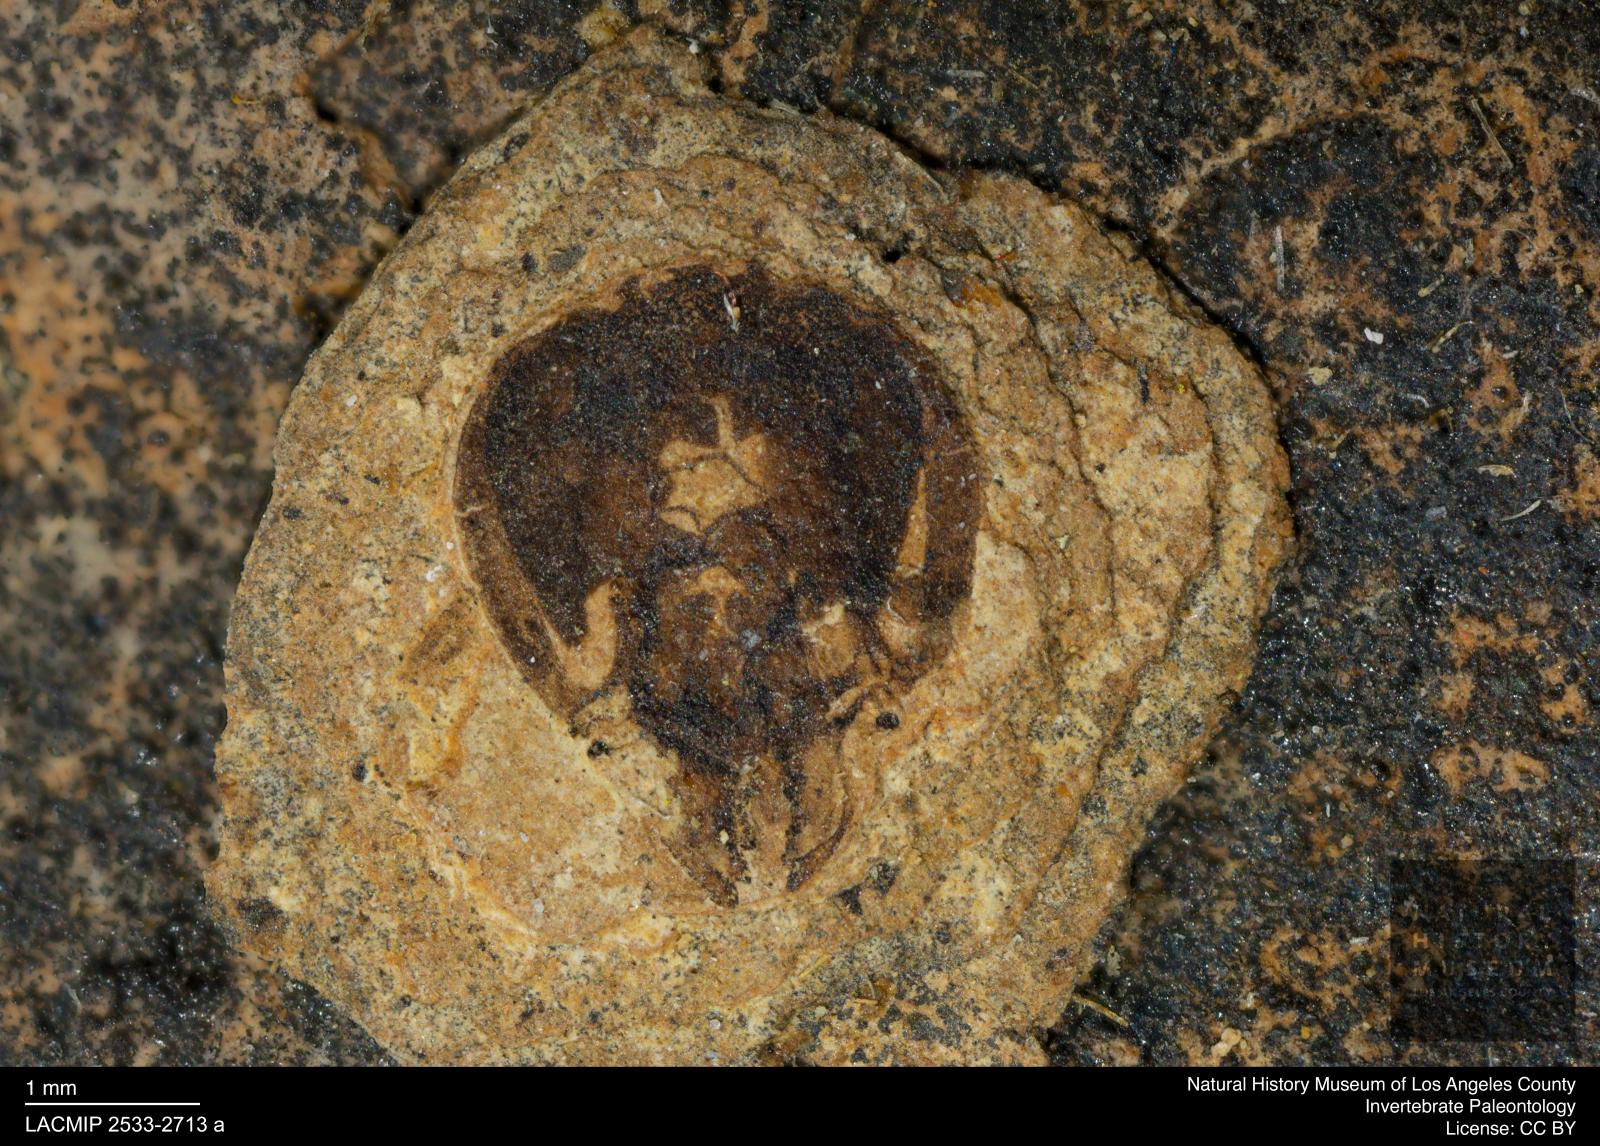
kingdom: Animalia
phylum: Arthropoda
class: Insecta
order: Hymenoptera
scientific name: Hymenoptera
